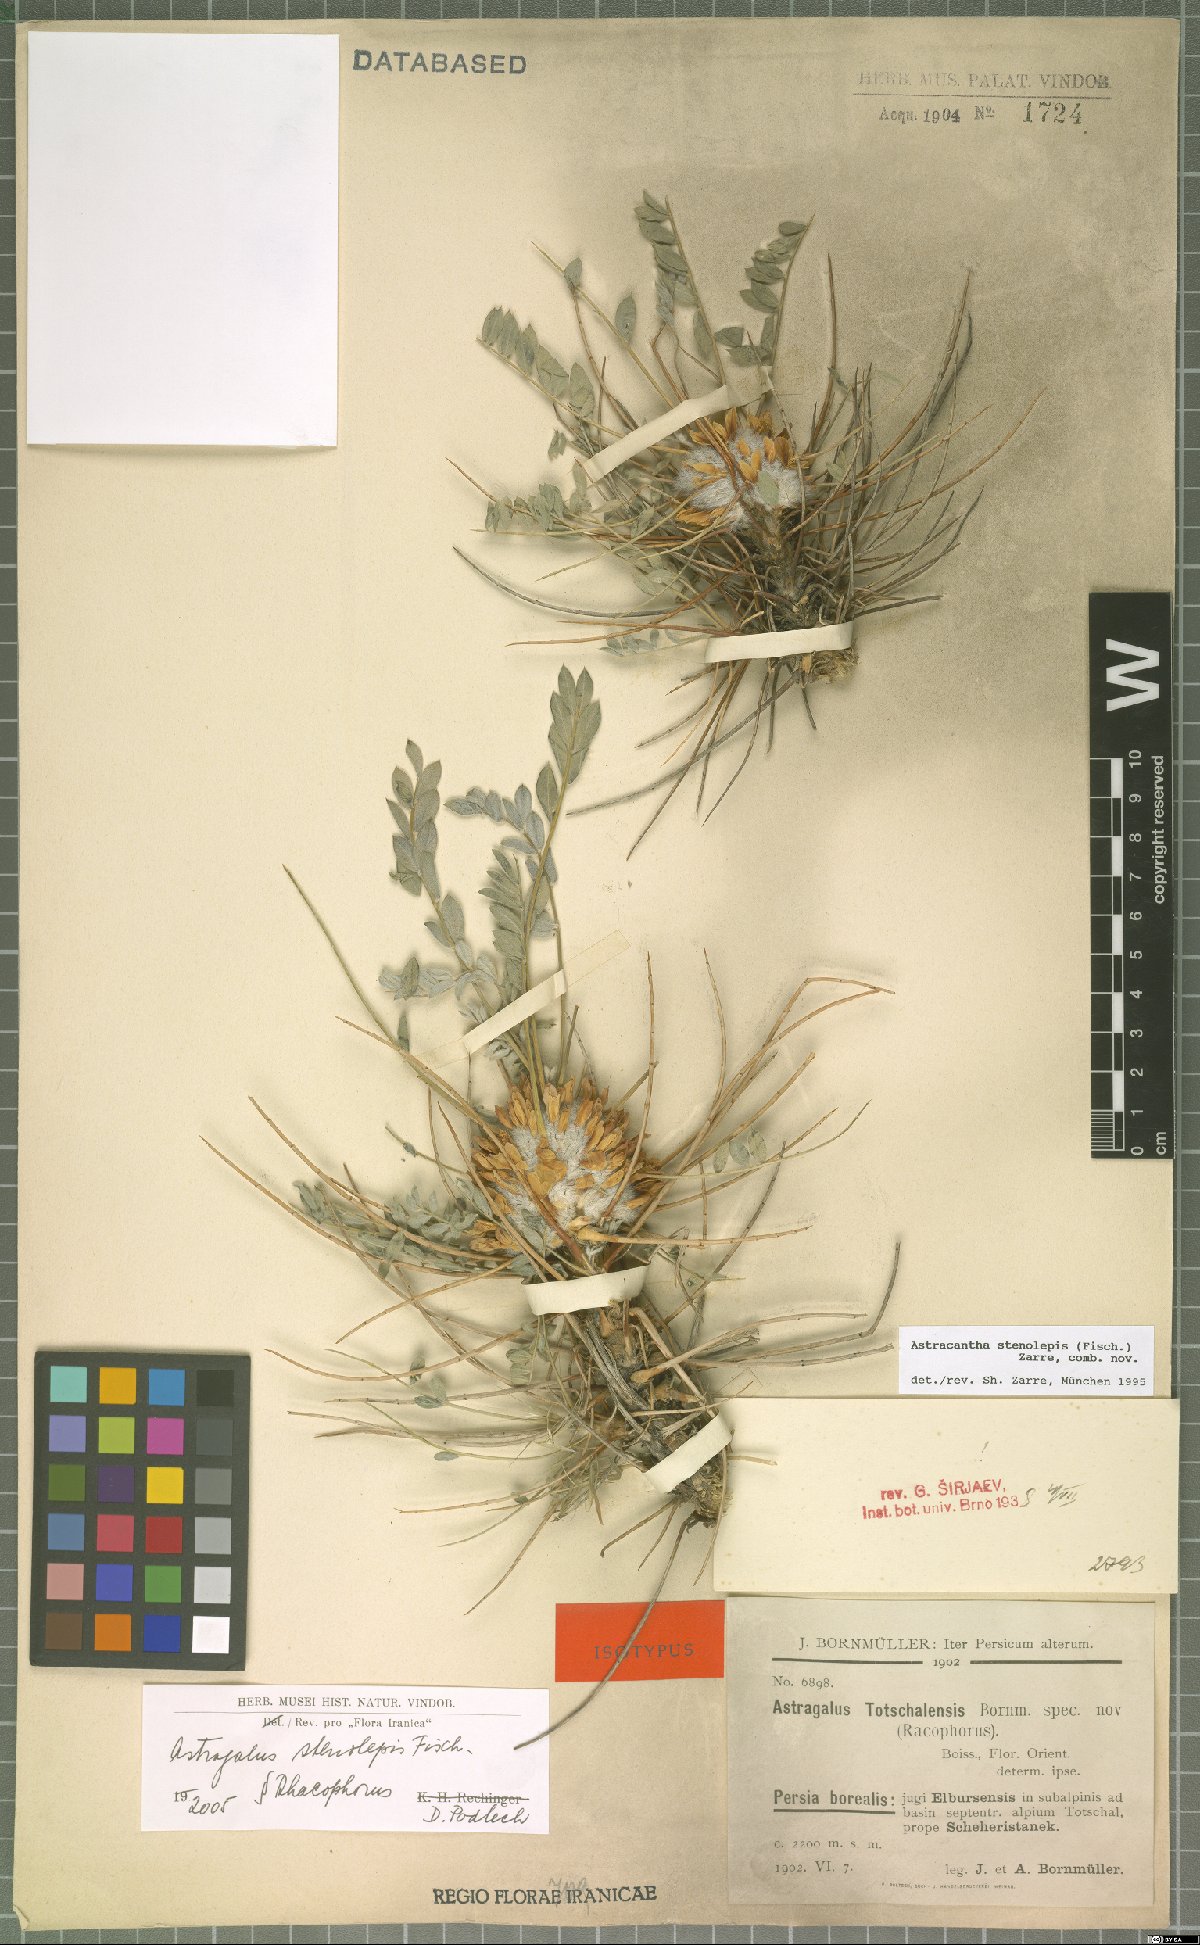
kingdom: Plantae
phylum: Tracheophyta
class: Magnoliopsida
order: Fabales
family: Fabaceae
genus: Astragalus
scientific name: Astragalus stenolepis
